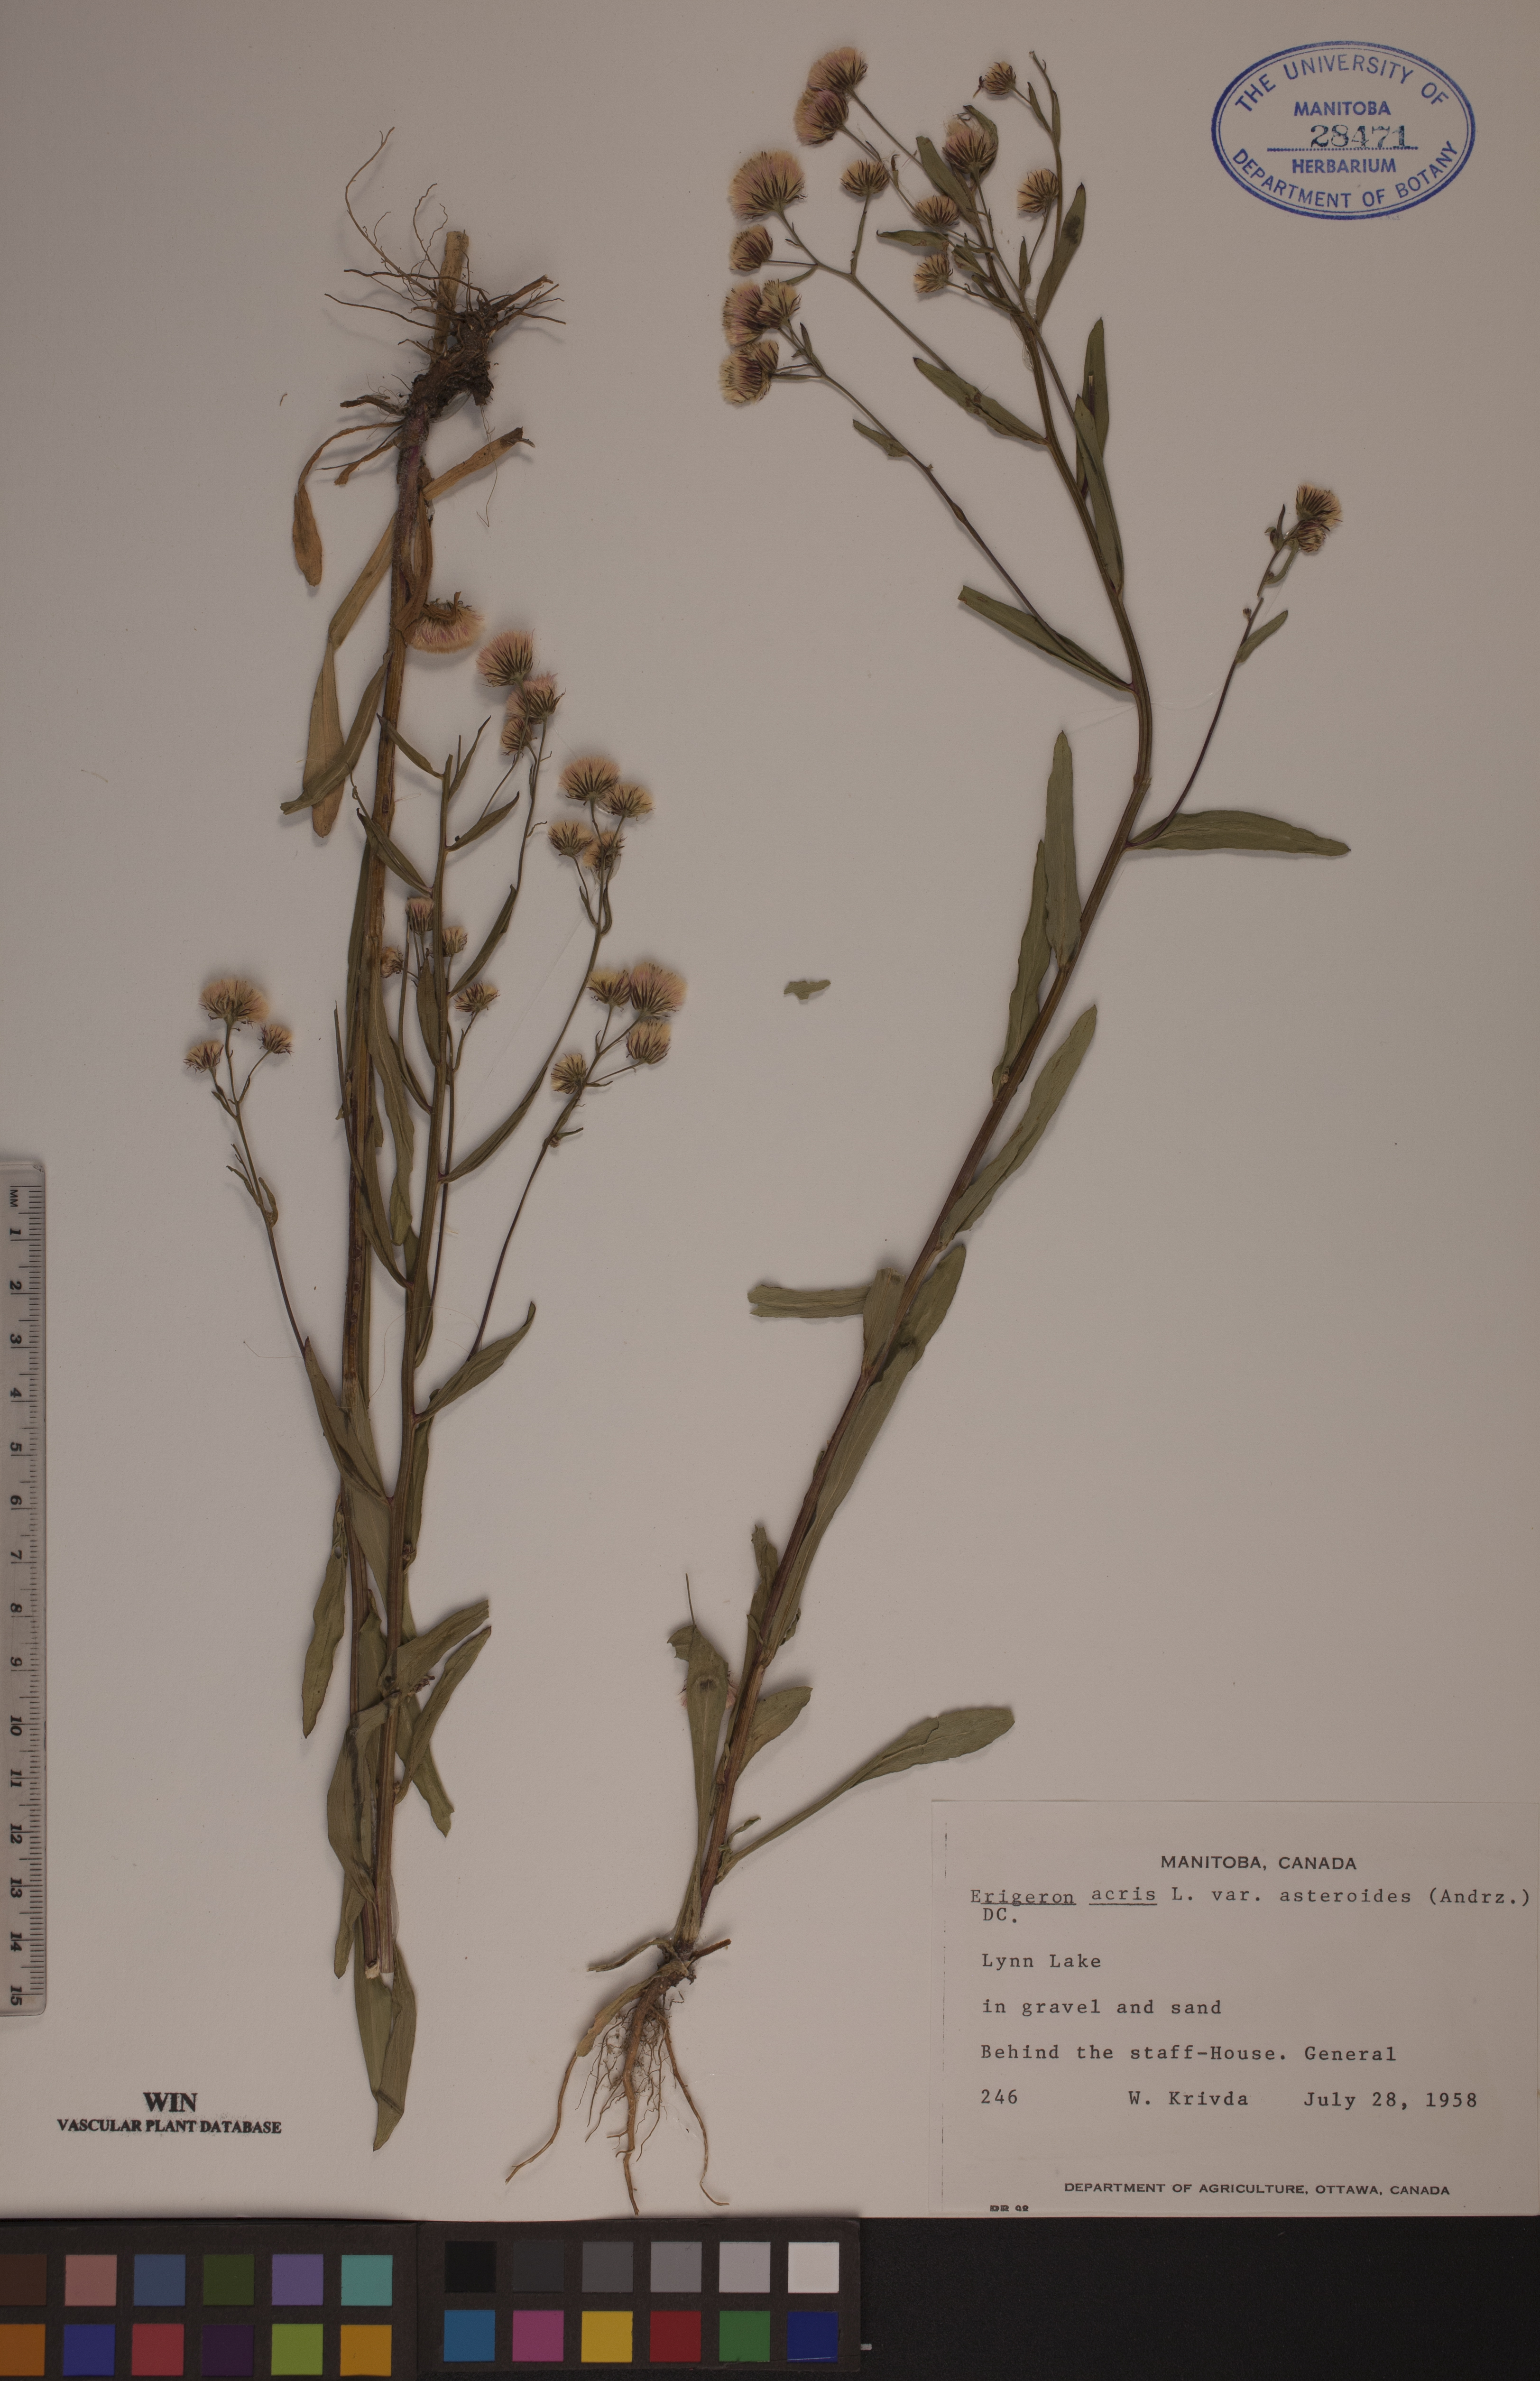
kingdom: Plantae
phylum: Tracheophyta
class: Magnoliopsida
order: Asterales
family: Asteraceae
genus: Erigeron
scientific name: Erigeron podolicus
